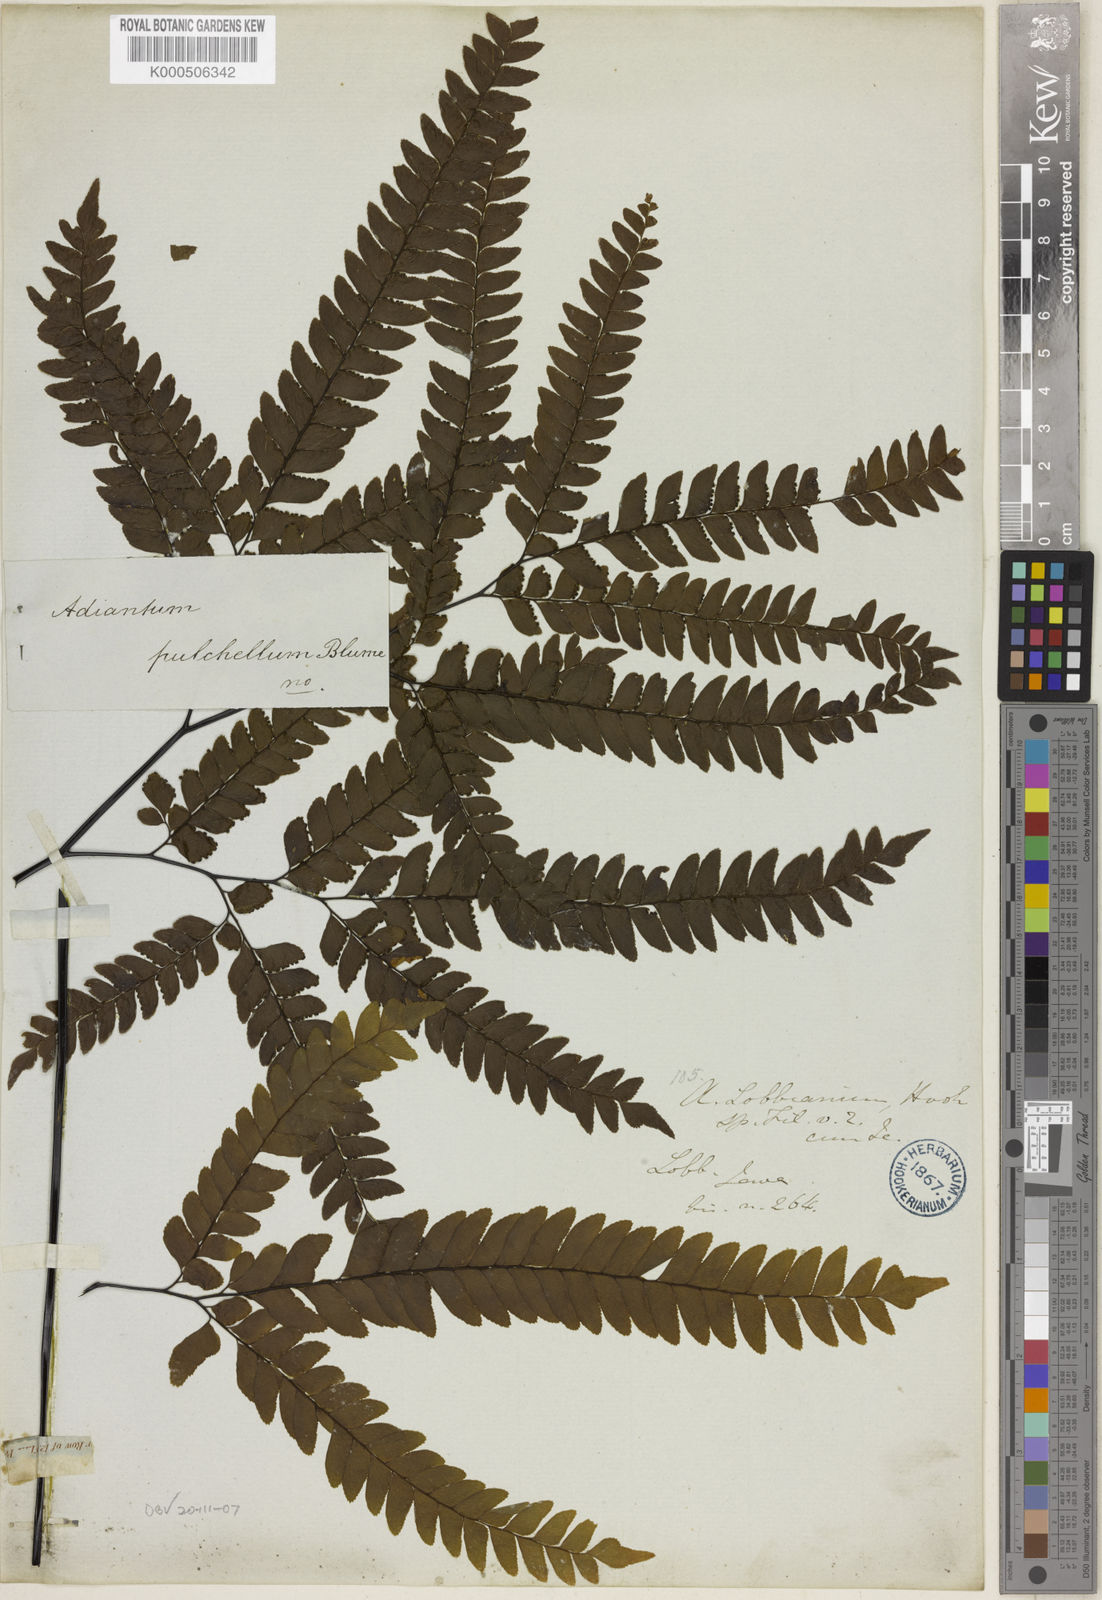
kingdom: Plantae
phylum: Tracheophyta
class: Polypodiopsida
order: Polypodiales
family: Pteridaceae
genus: Adiantum
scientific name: Adiantum pulchellum
